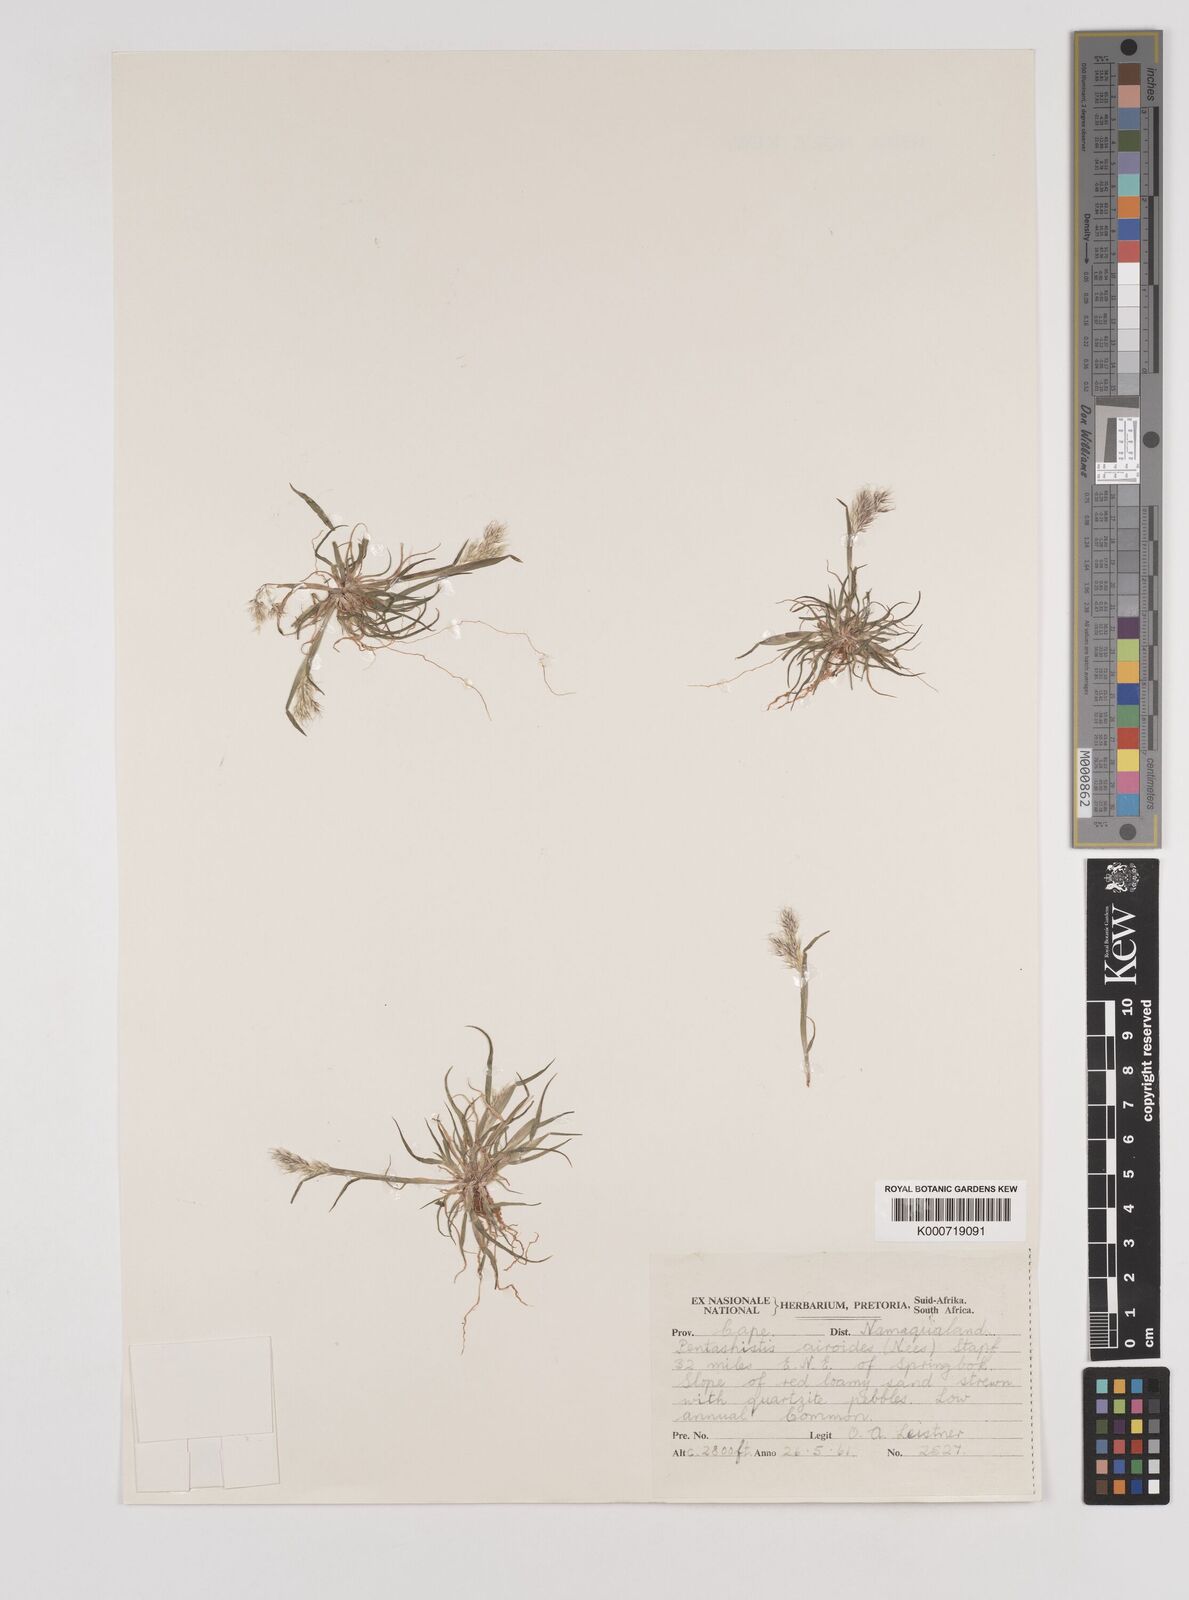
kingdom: Plantae
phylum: Tracheophyta
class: Liliopsida
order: Poales
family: Poaceae
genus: Pentameris
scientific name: Pentameris airoides
